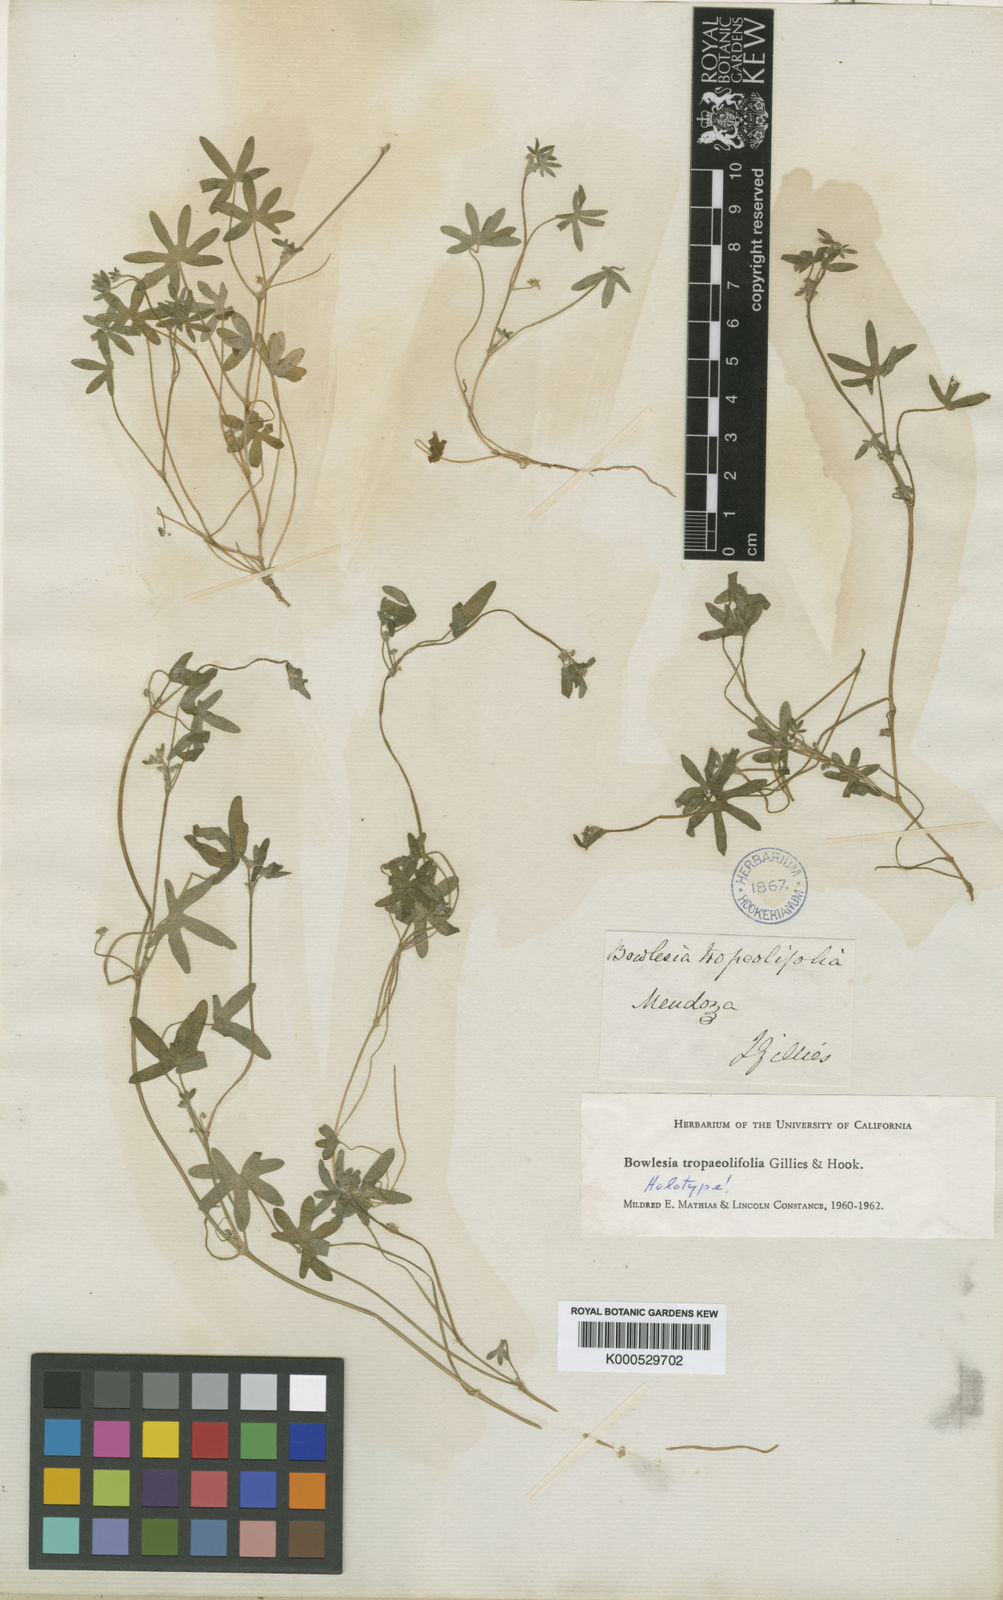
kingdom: Plantae
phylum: Tracheophyta
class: Magnoliopsida
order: Apiales
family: Apiaceae
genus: Bowlesia
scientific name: Bowlesia tropaeolifolia
